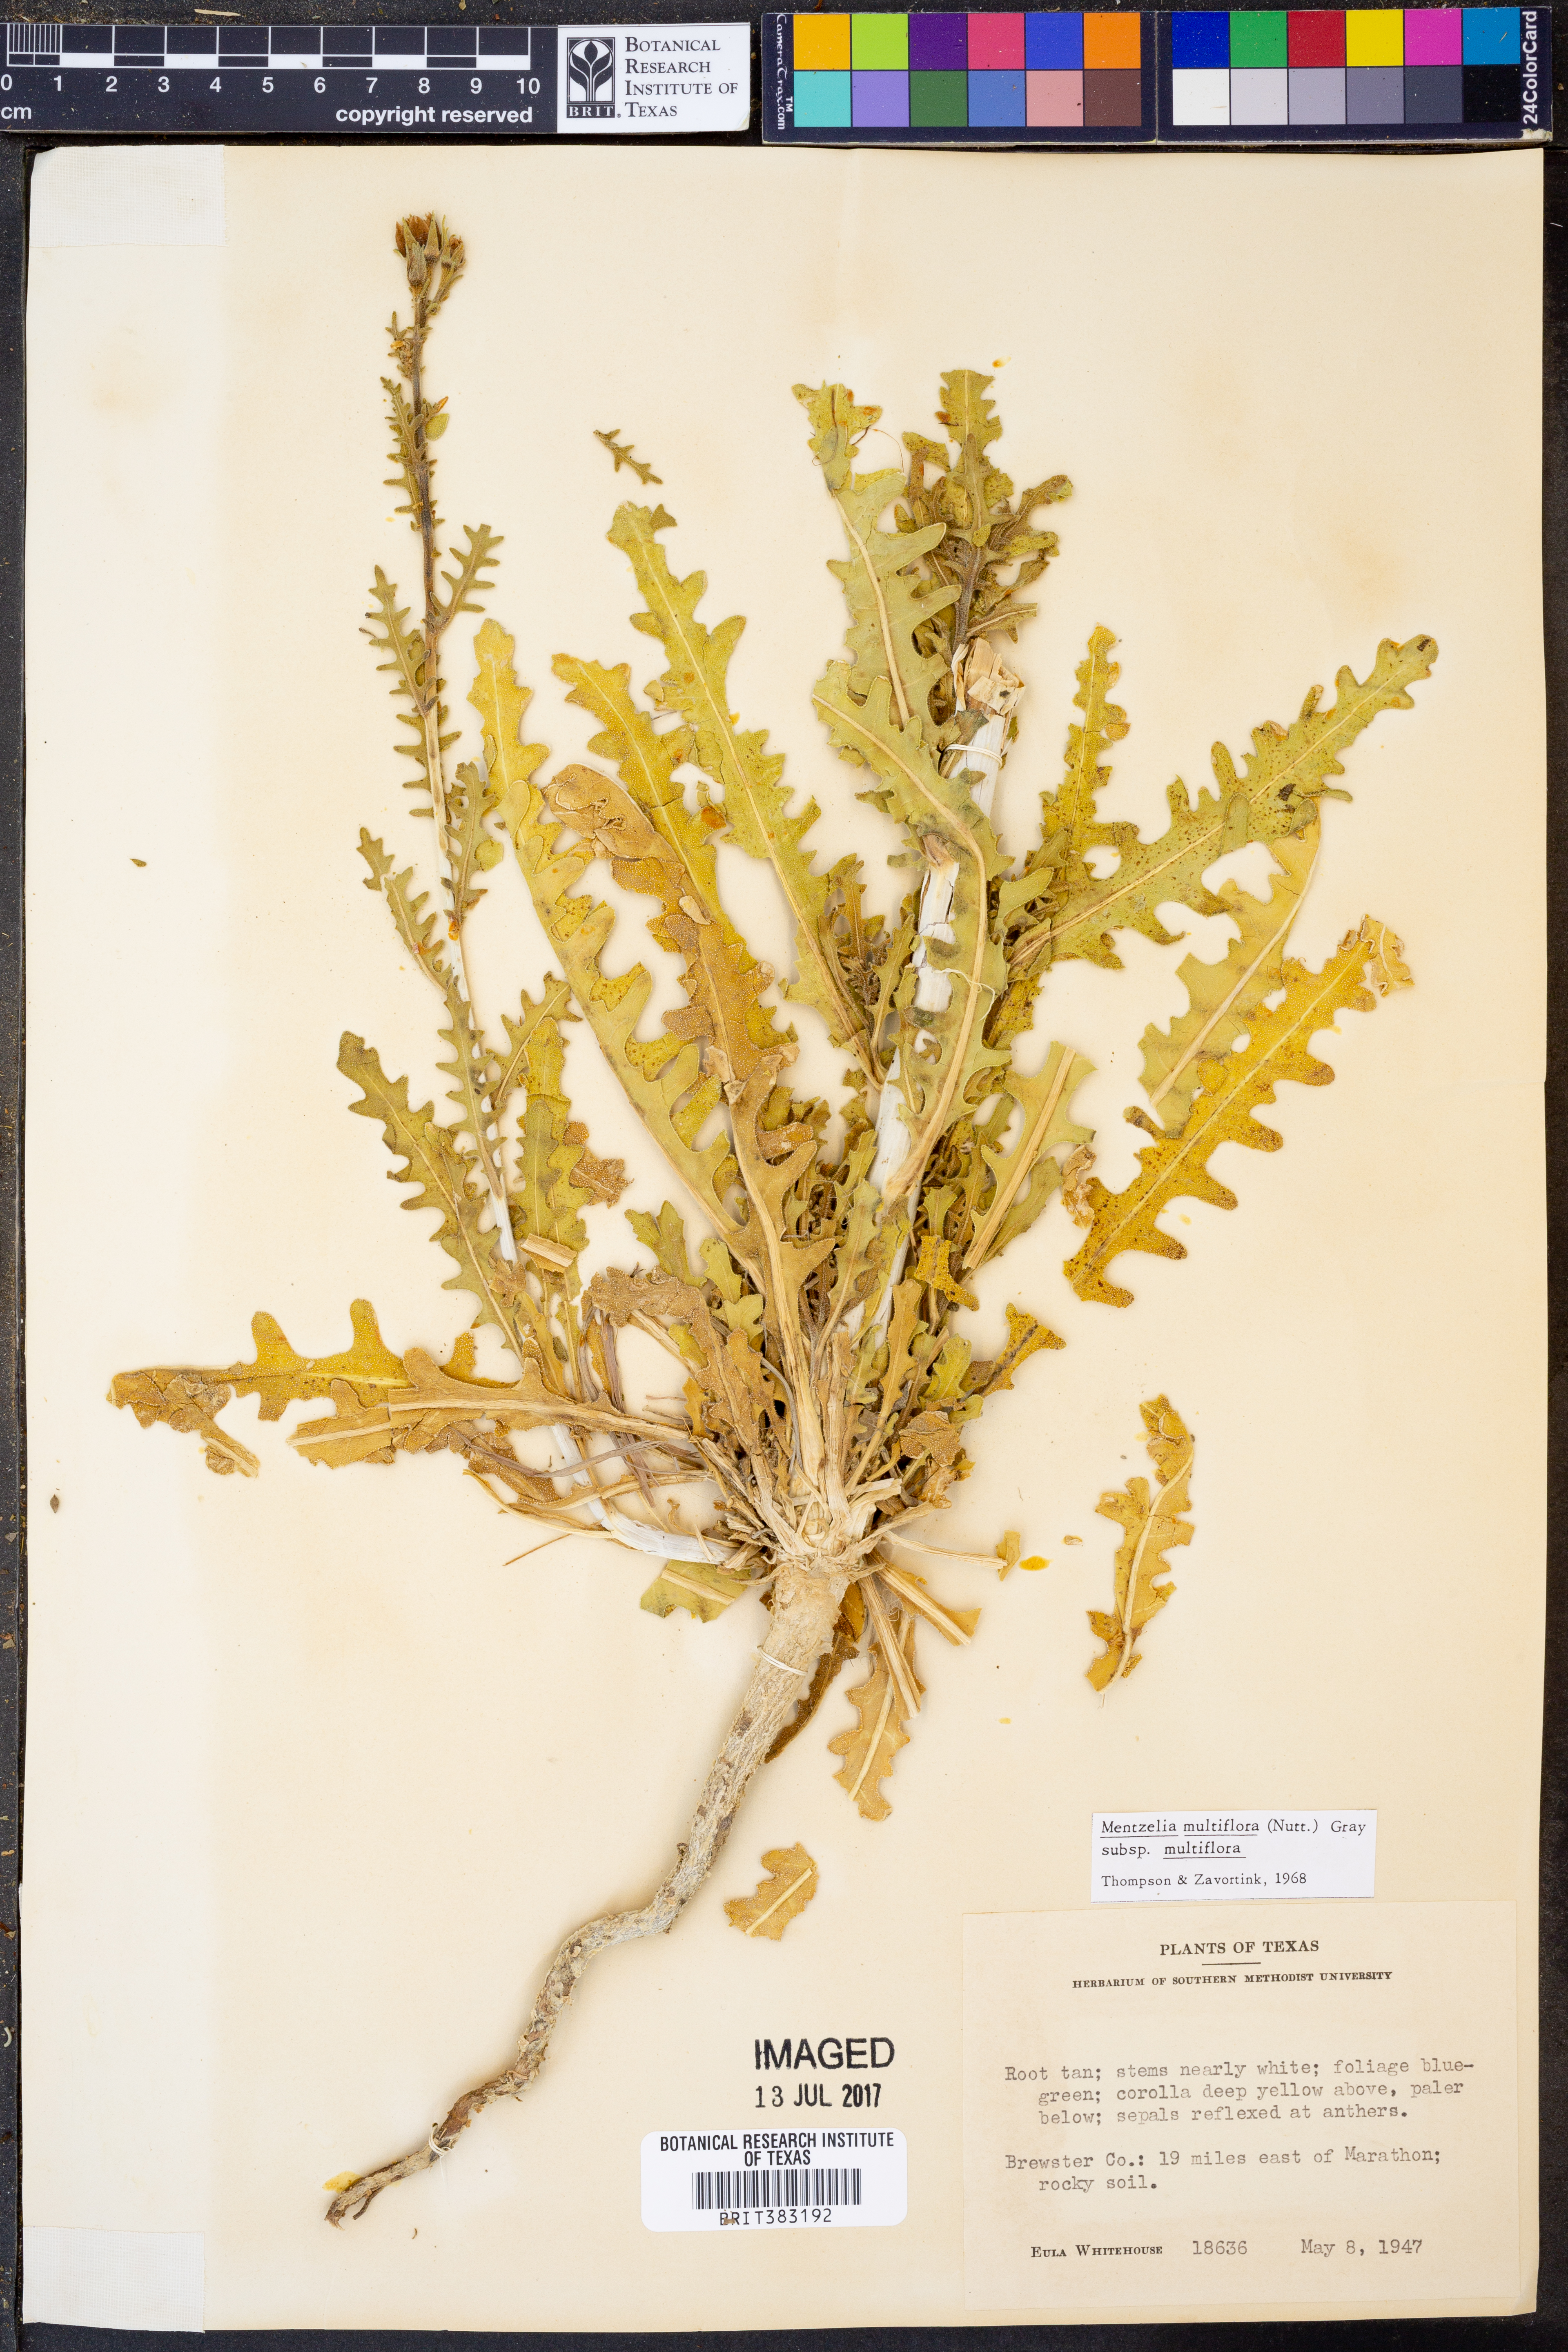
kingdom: Plantae
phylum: Tracheophyta
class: Magnoliopsida
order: Cornales
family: Loasaceae
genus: Mentzelia
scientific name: Mentzelia multiflora
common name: Adonis blazingstar
